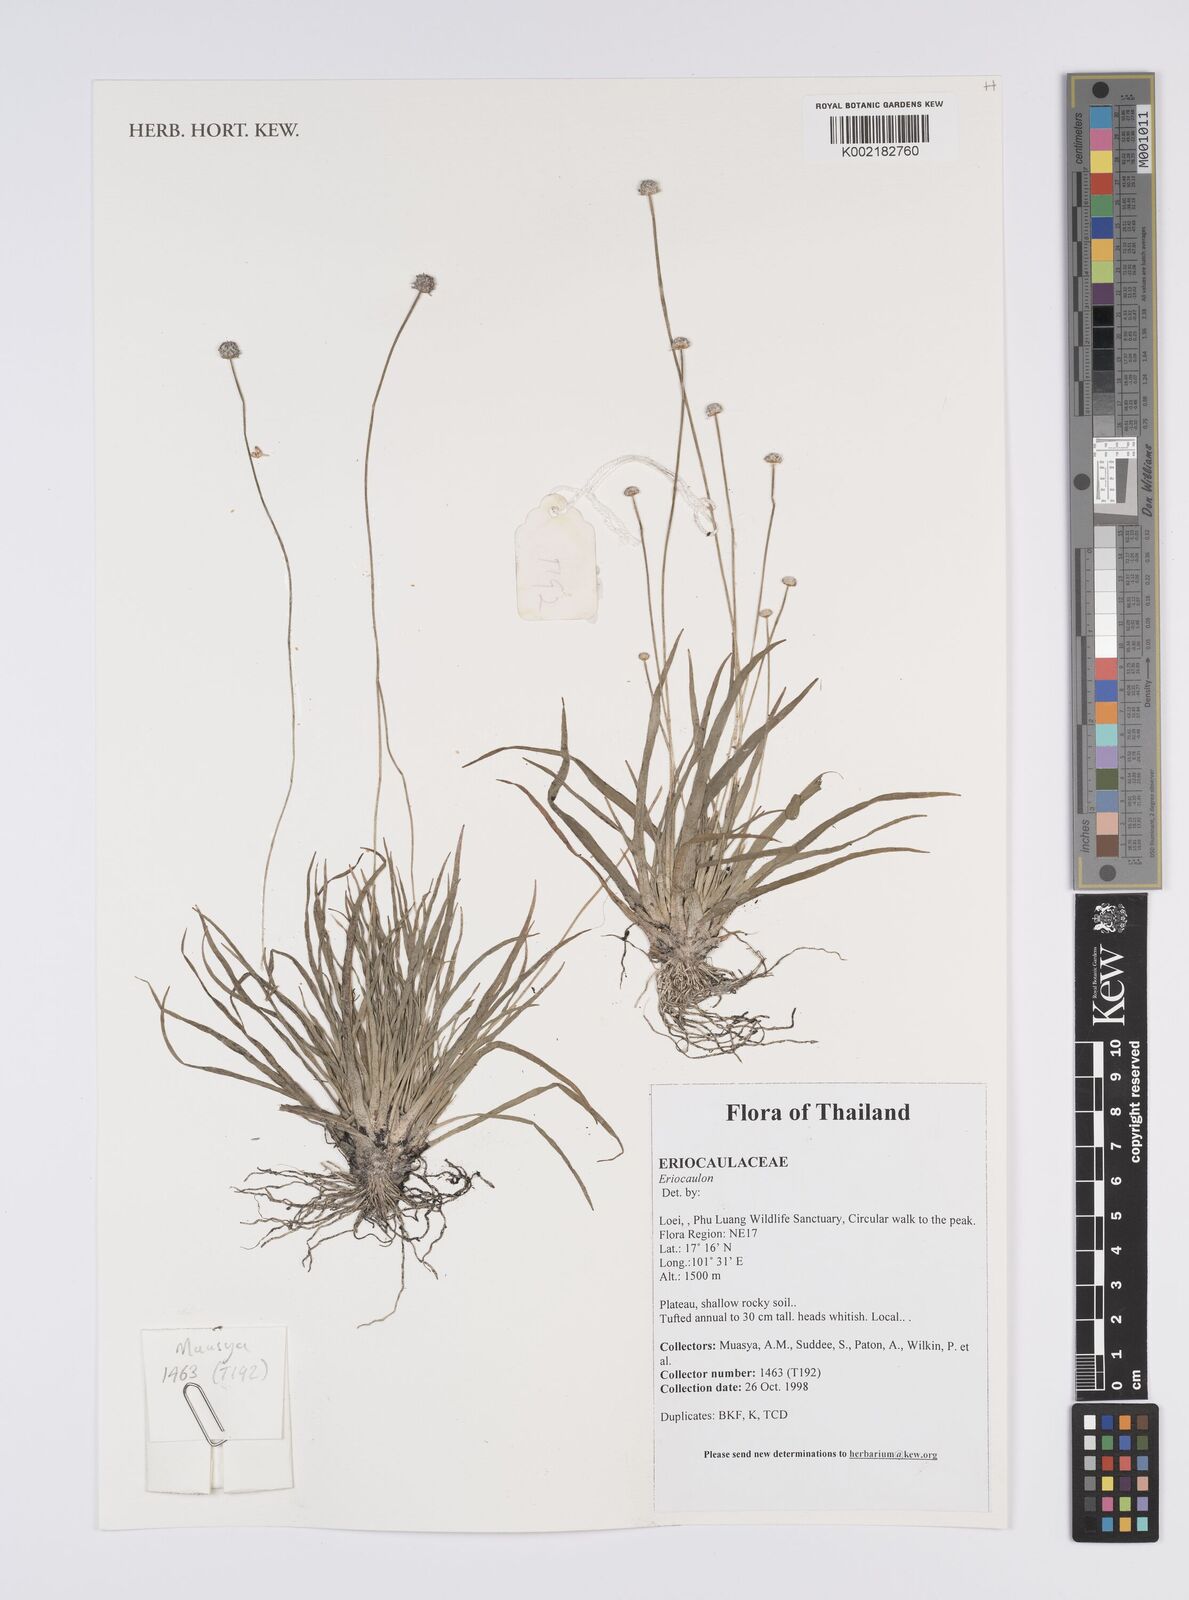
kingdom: Plantae
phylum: Tracheophyta
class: Liliopsida
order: Poales
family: Eriocaulaceae
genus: Eriocaulon
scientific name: Eriocaulon
